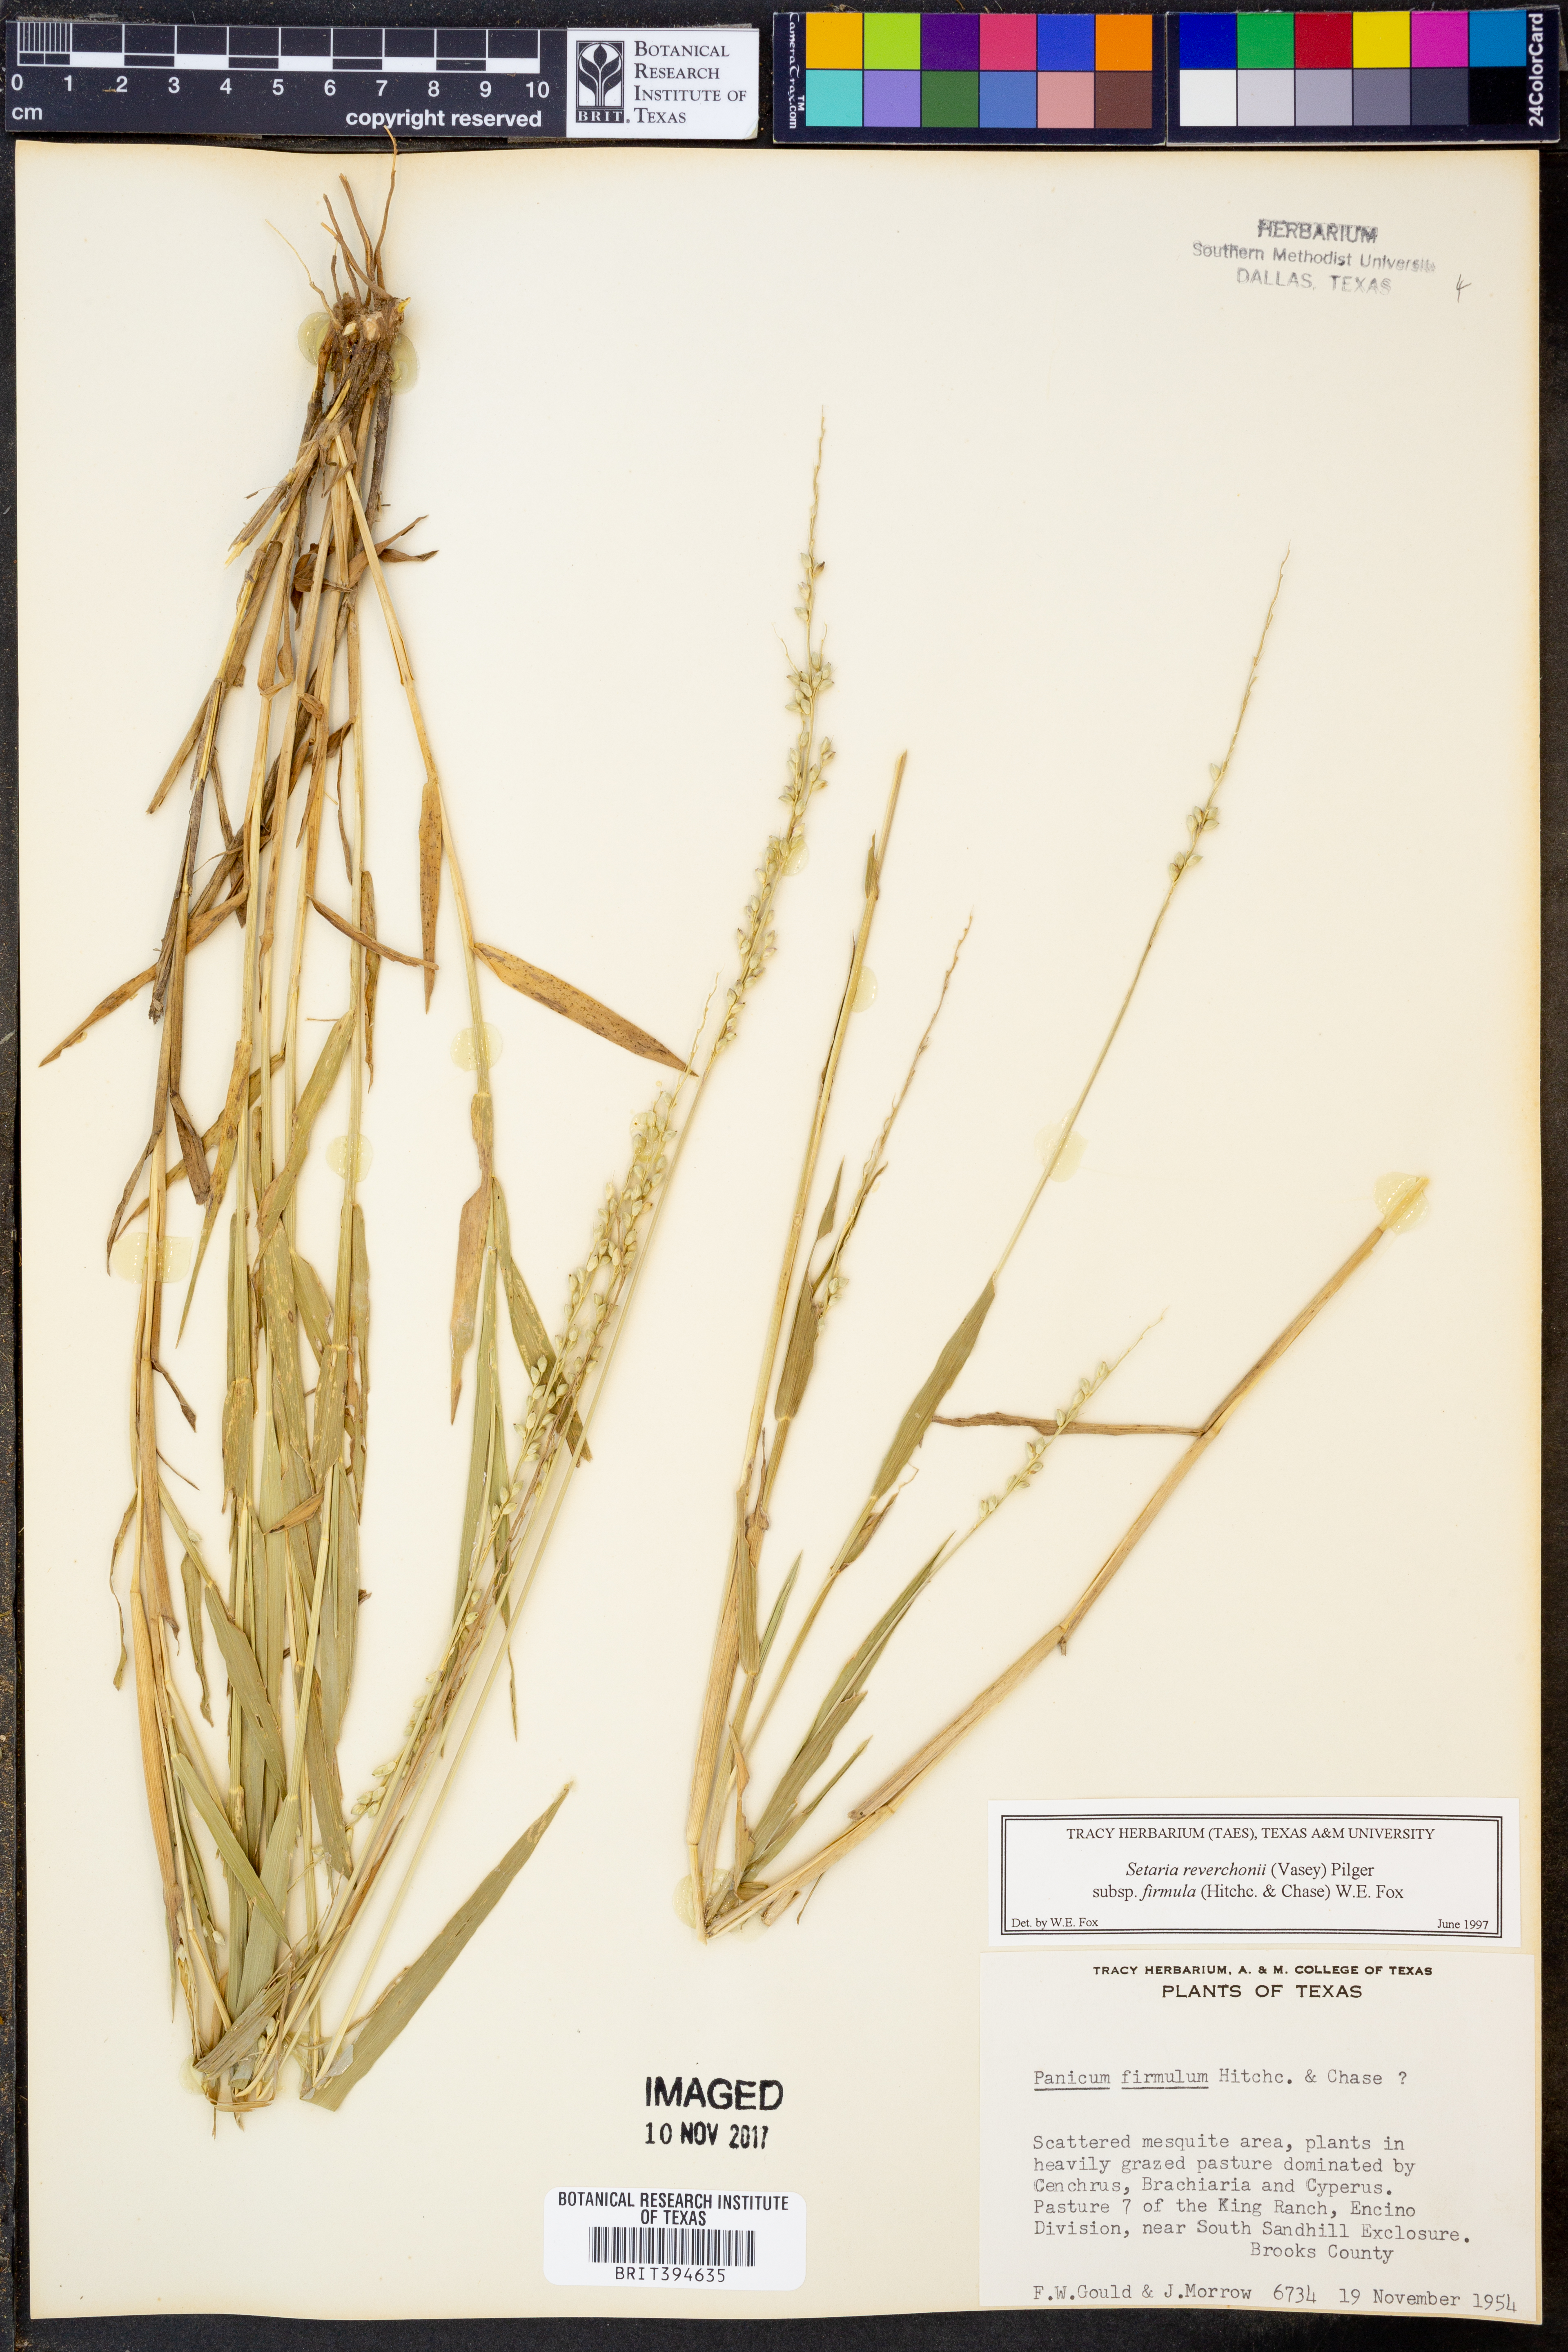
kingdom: Plantae
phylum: Tracheophyta
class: Liliopsida
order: Poales
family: Poaceae
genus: Setaria
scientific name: Setaria reverchonii
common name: Reverchon's bristle grass
